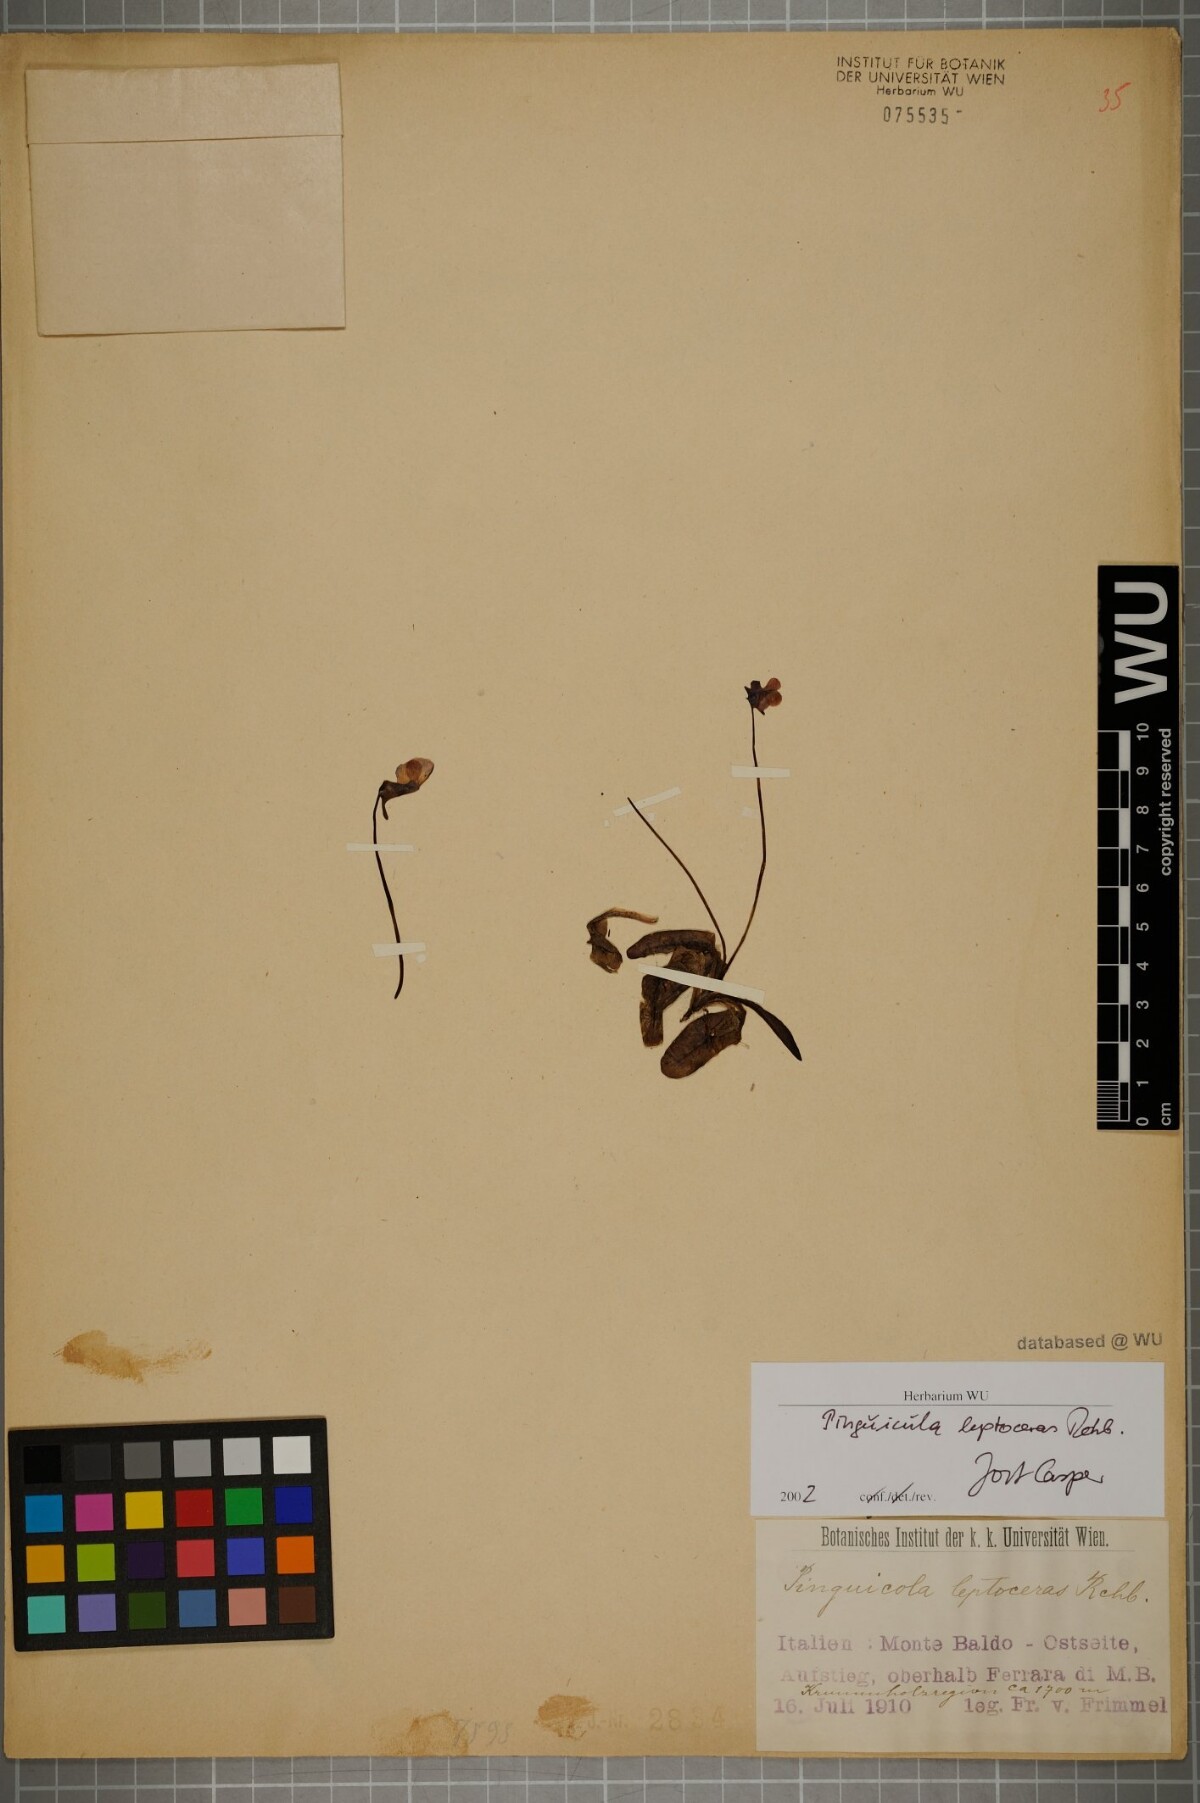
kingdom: Plantae
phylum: Tracheophyta
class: Magnoliopsida
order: Lamiales
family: Lentibulariaceae
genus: Pinguicula
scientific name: Pinguicula leptoceras
